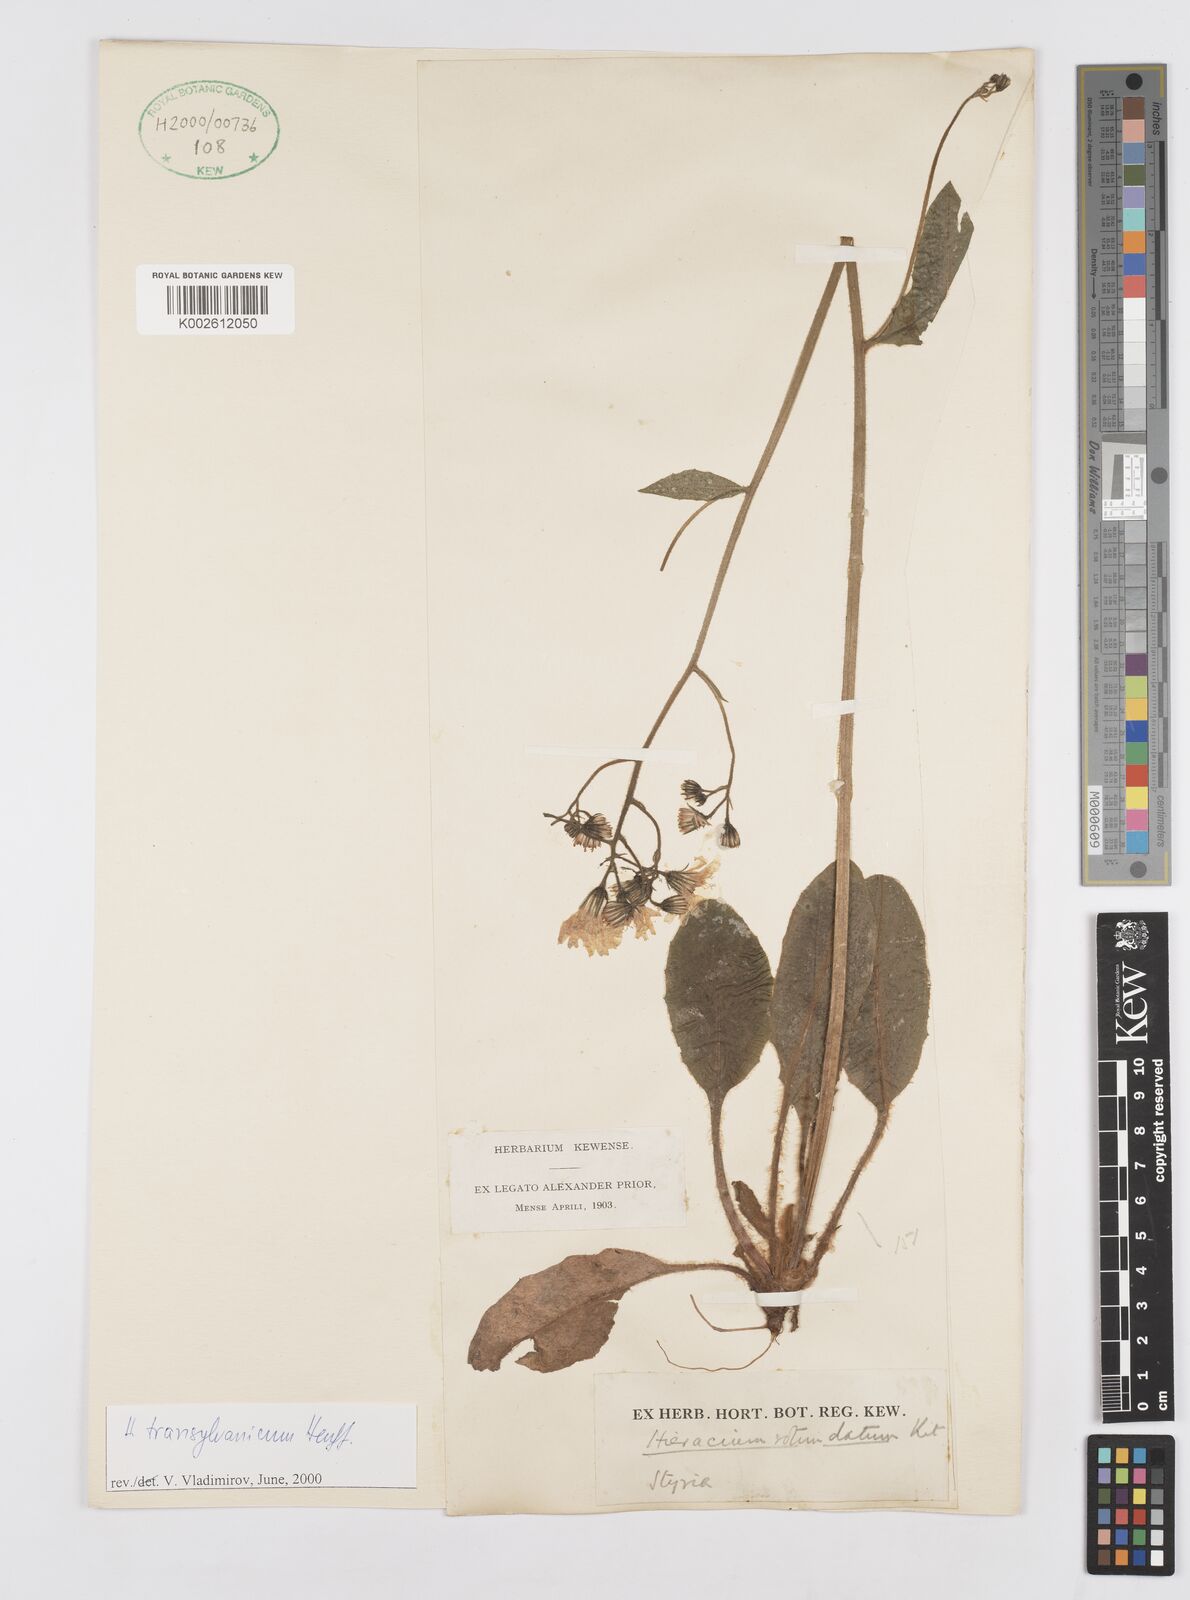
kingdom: Plantae
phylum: Tracheophyta
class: Magnoliopsida
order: Asterales
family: Asteraceae
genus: Hieracium
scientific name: Hieracium
